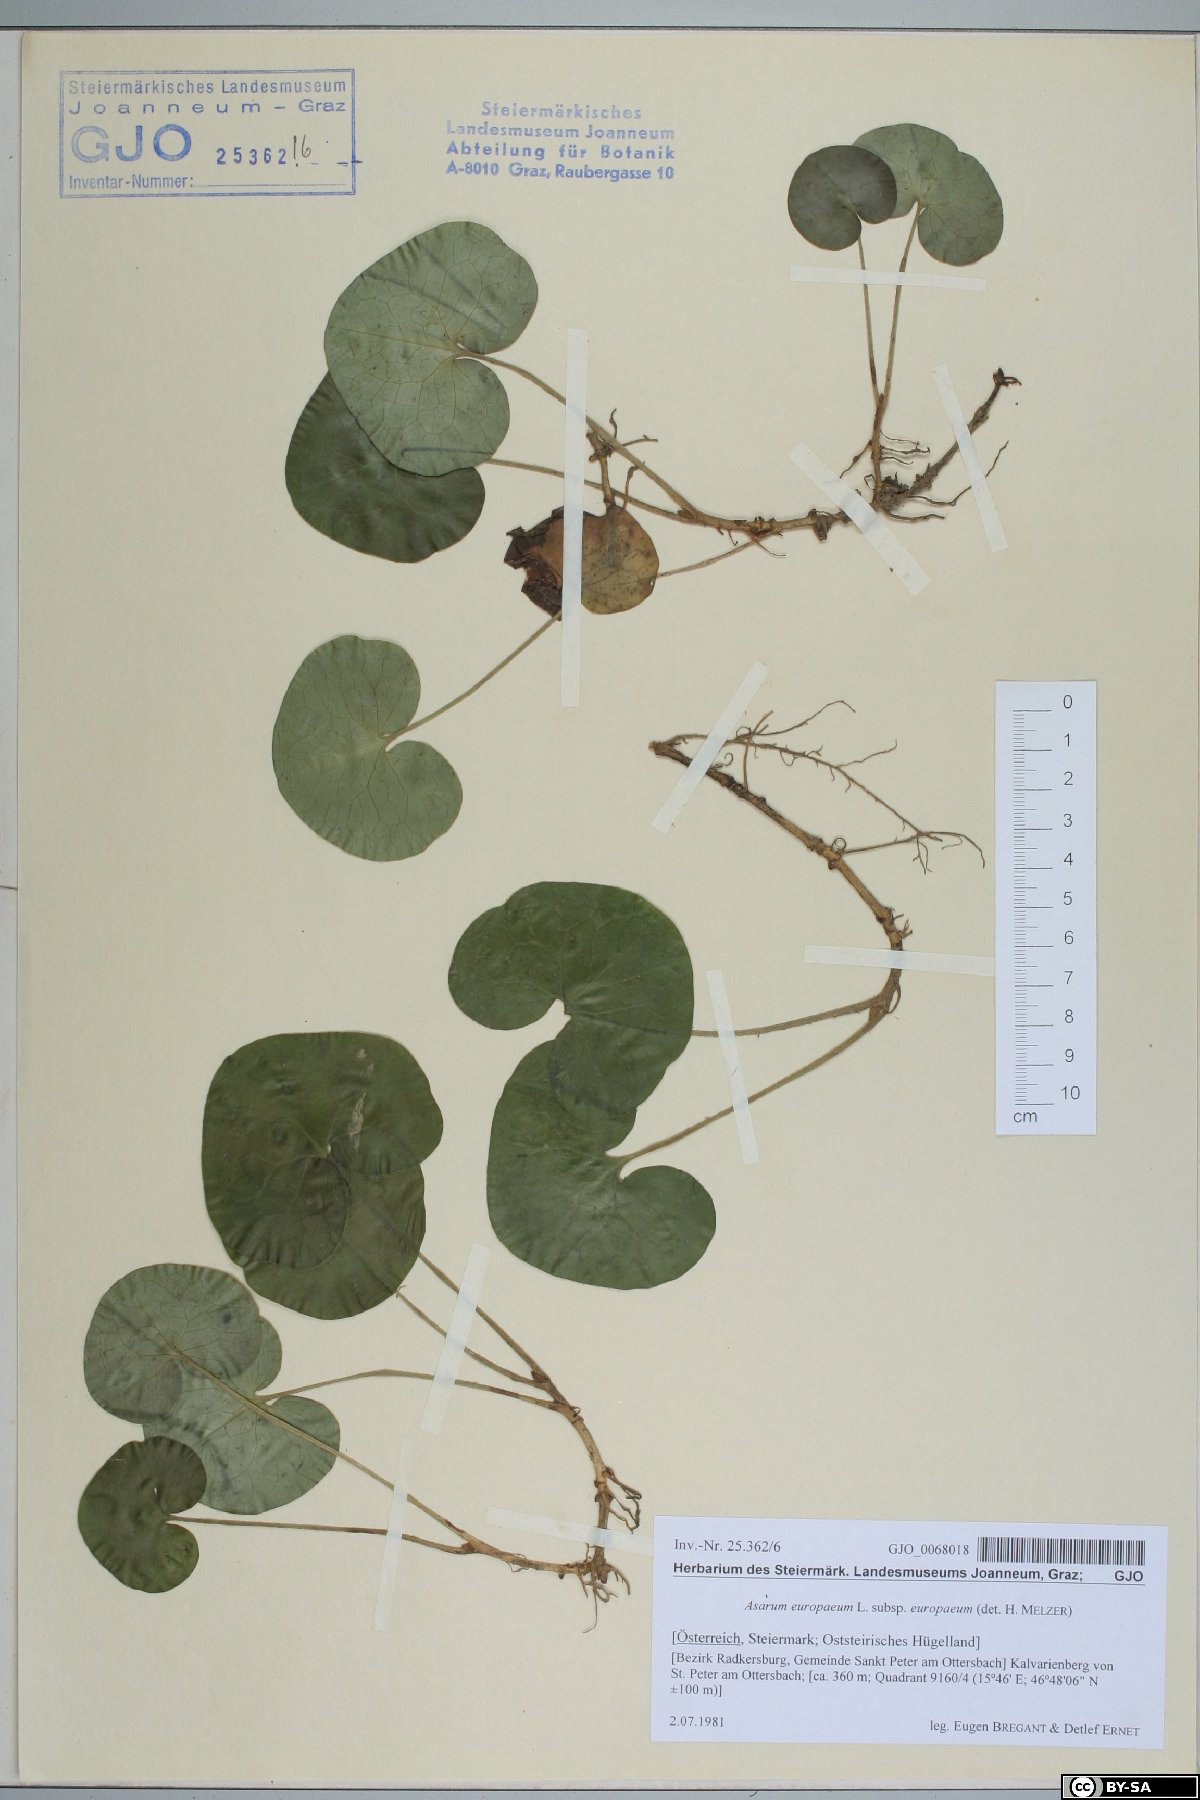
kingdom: Plantae
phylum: Tracheophyta
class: Magnoliopsida
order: Piperales
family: Aristolochiaceae
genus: Asarum
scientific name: Asarum europaeum
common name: Asarabacca
